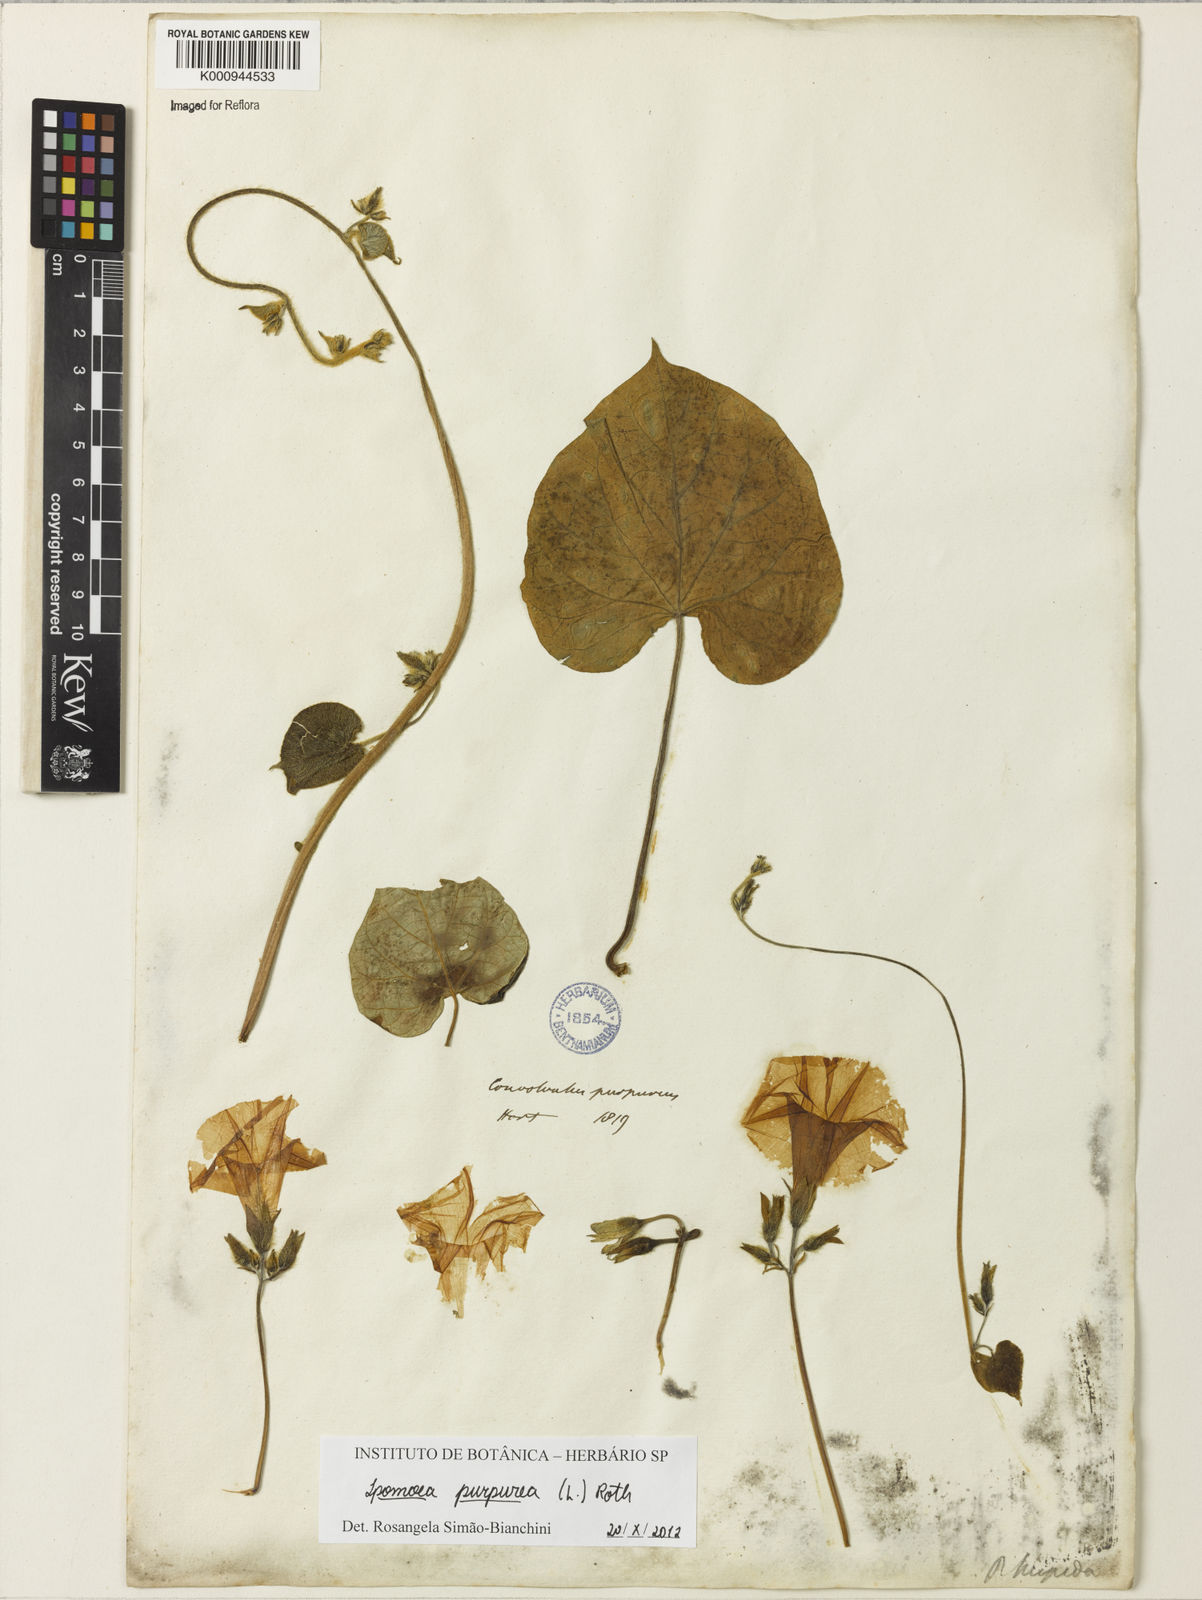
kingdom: Plantae
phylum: Tracheophyta
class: Magnoliopsida
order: Solanales
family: Convolvulaceae
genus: Ipomoea
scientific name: Ipomoea purpurea
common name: Common morning-glory
